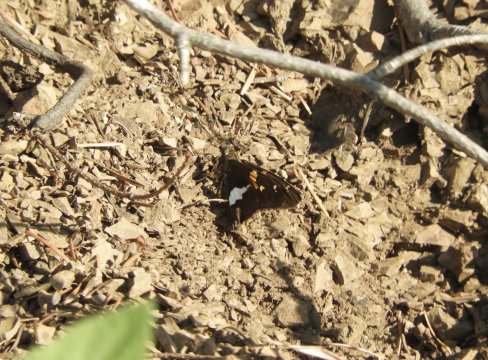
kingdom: Animalia
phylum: Arthropoda
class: Insecta
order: Lepidoptera
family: Hesperiidae
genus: Epargyreus
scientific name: Epargyreus clarus
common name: Silver-spotted Skipper
